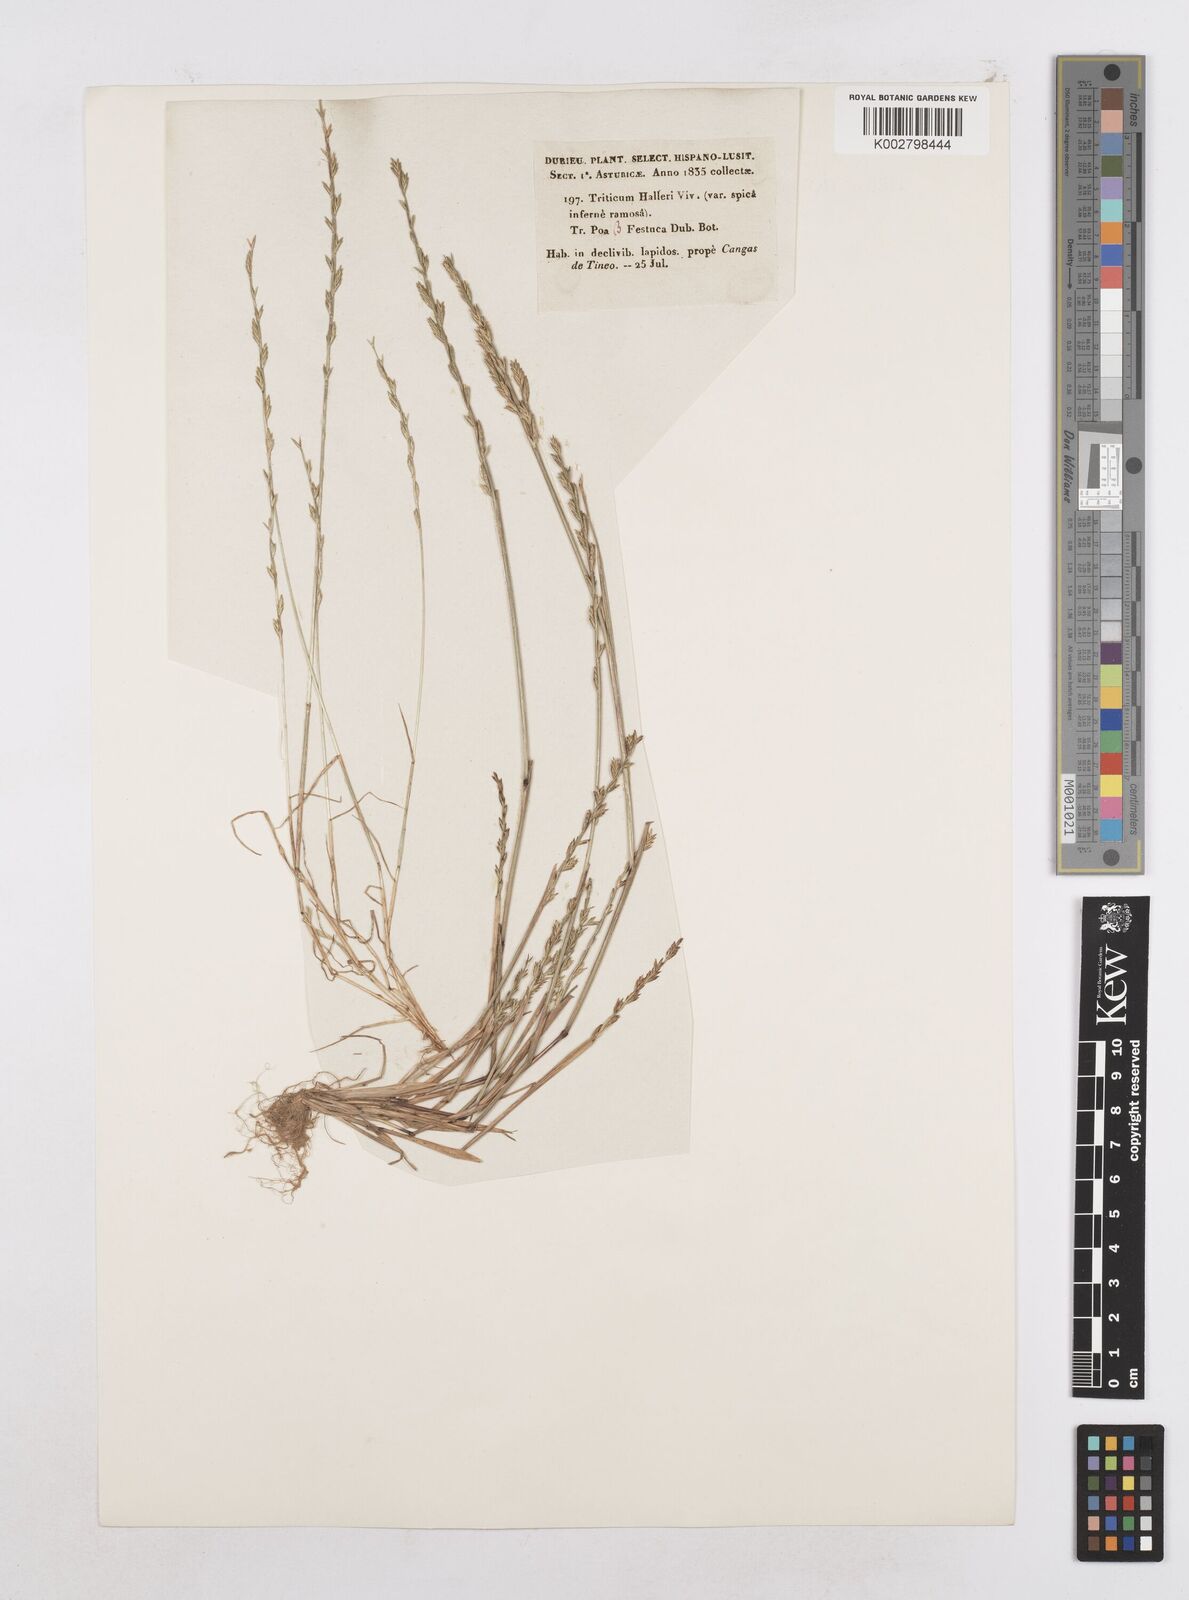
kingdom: Plantae
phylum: Tracheophyta
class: Liliopsida
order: Poales
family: Poaceae
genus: Festuca
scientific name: Festuca lachenalii
